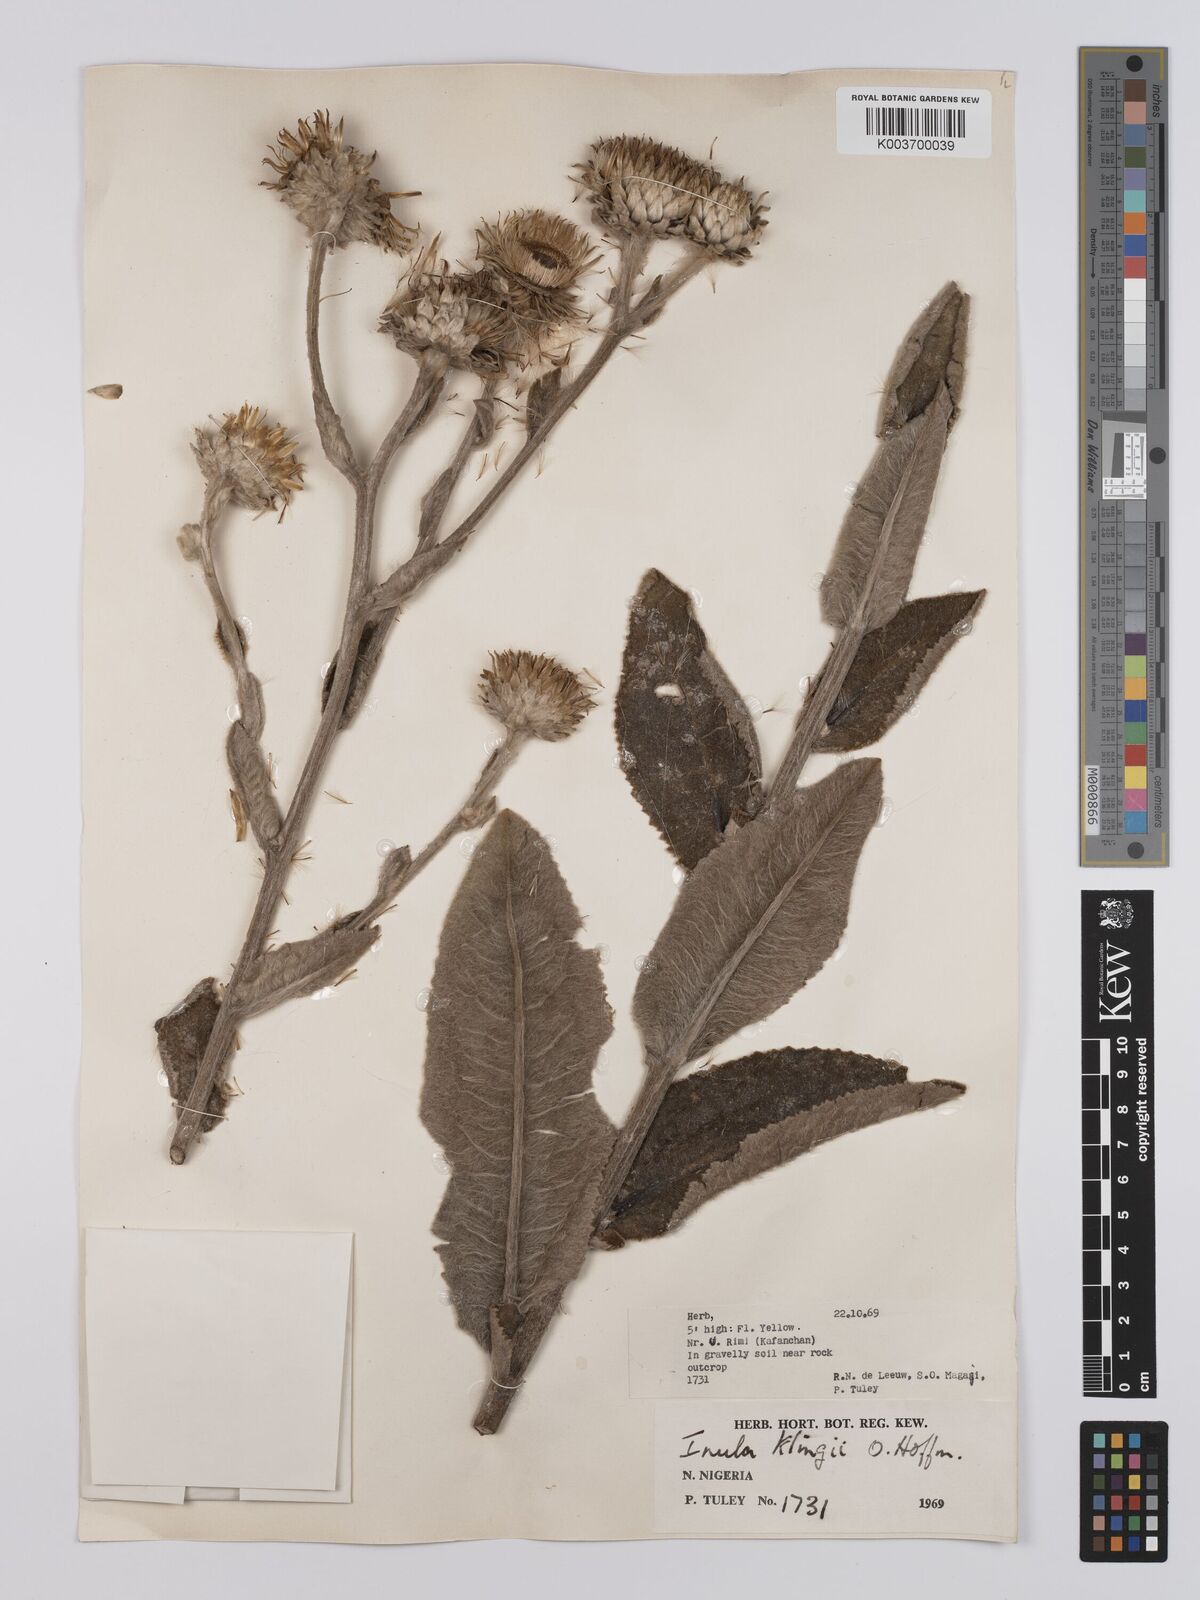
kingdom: Plantae
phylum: Tracheophyta
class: Magnoliopsida
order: Asterales
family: Asteraceae
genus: Inula
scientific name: Inula klingii
